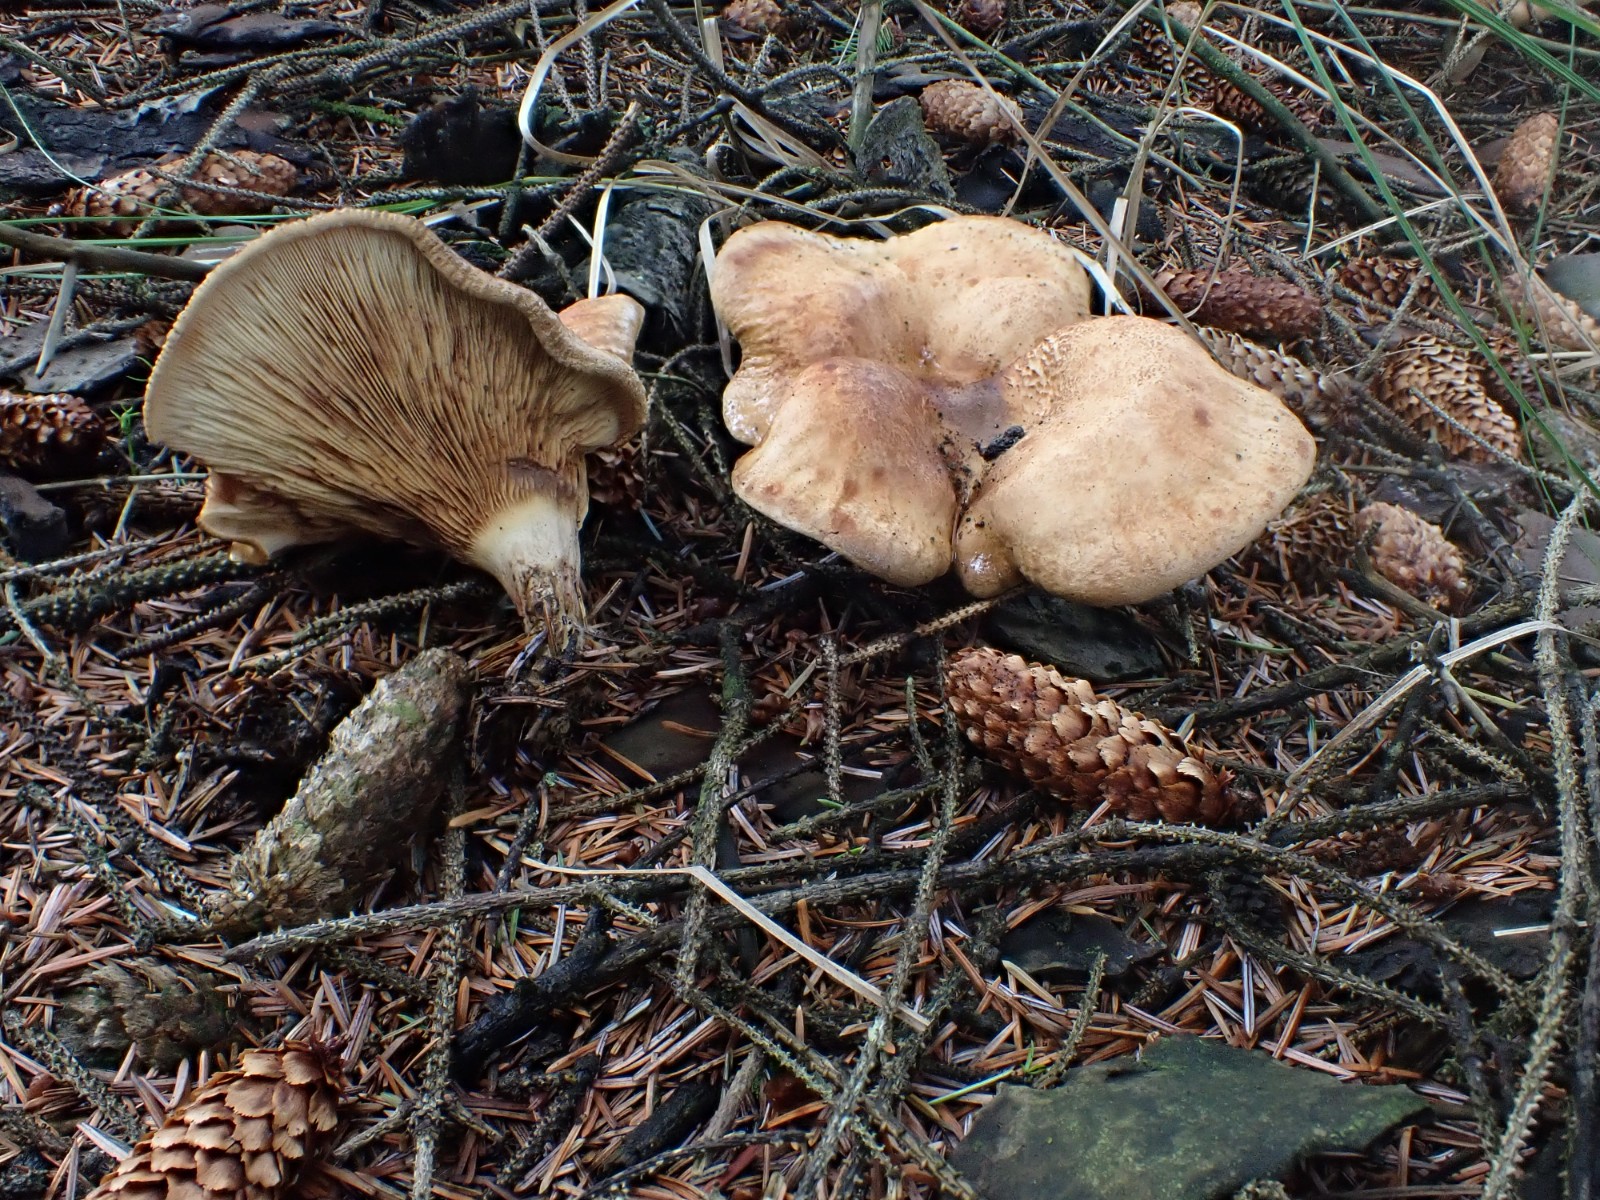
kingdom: Fungi
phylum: Basidiomycota
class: Agaricomycetes
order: Boletales
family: Paxillaceae
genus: Paxillus
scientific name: Paxillus involutus
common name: almindelig netbladhat
